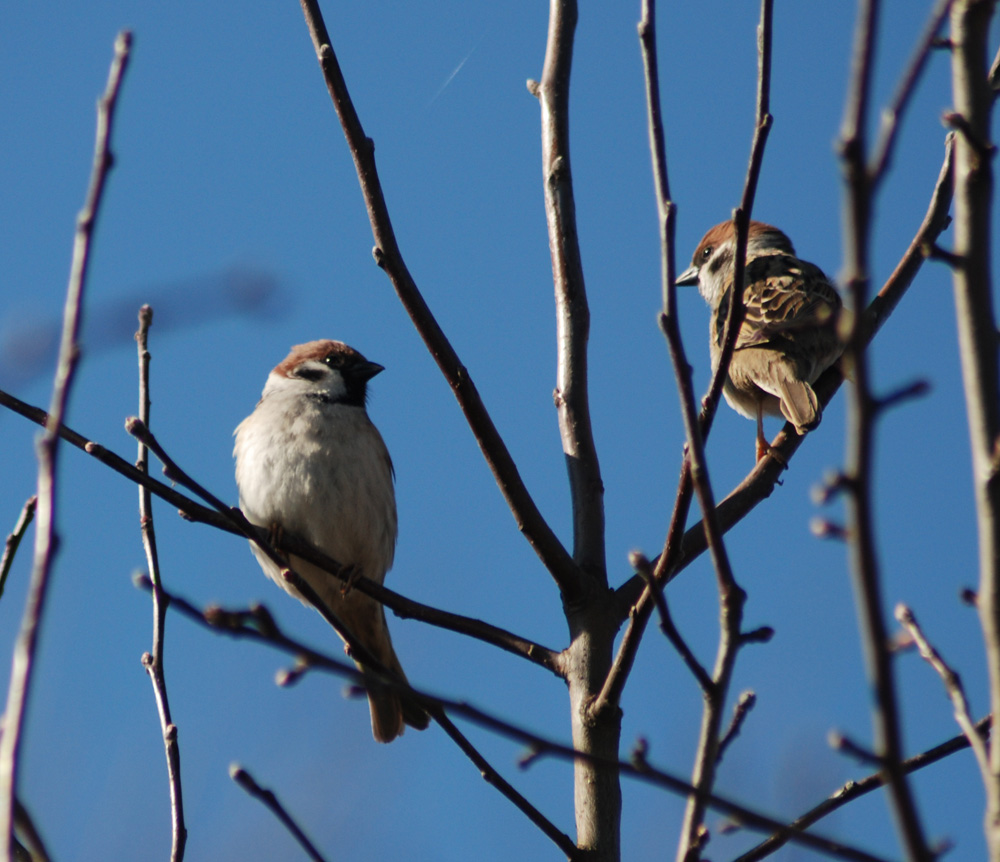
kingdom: Animalia
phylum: Chordata
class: Aves
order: Passeriformes
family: Passeridae
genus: Passer
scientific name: Passer montanus
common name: Eurasian tree sparrow
